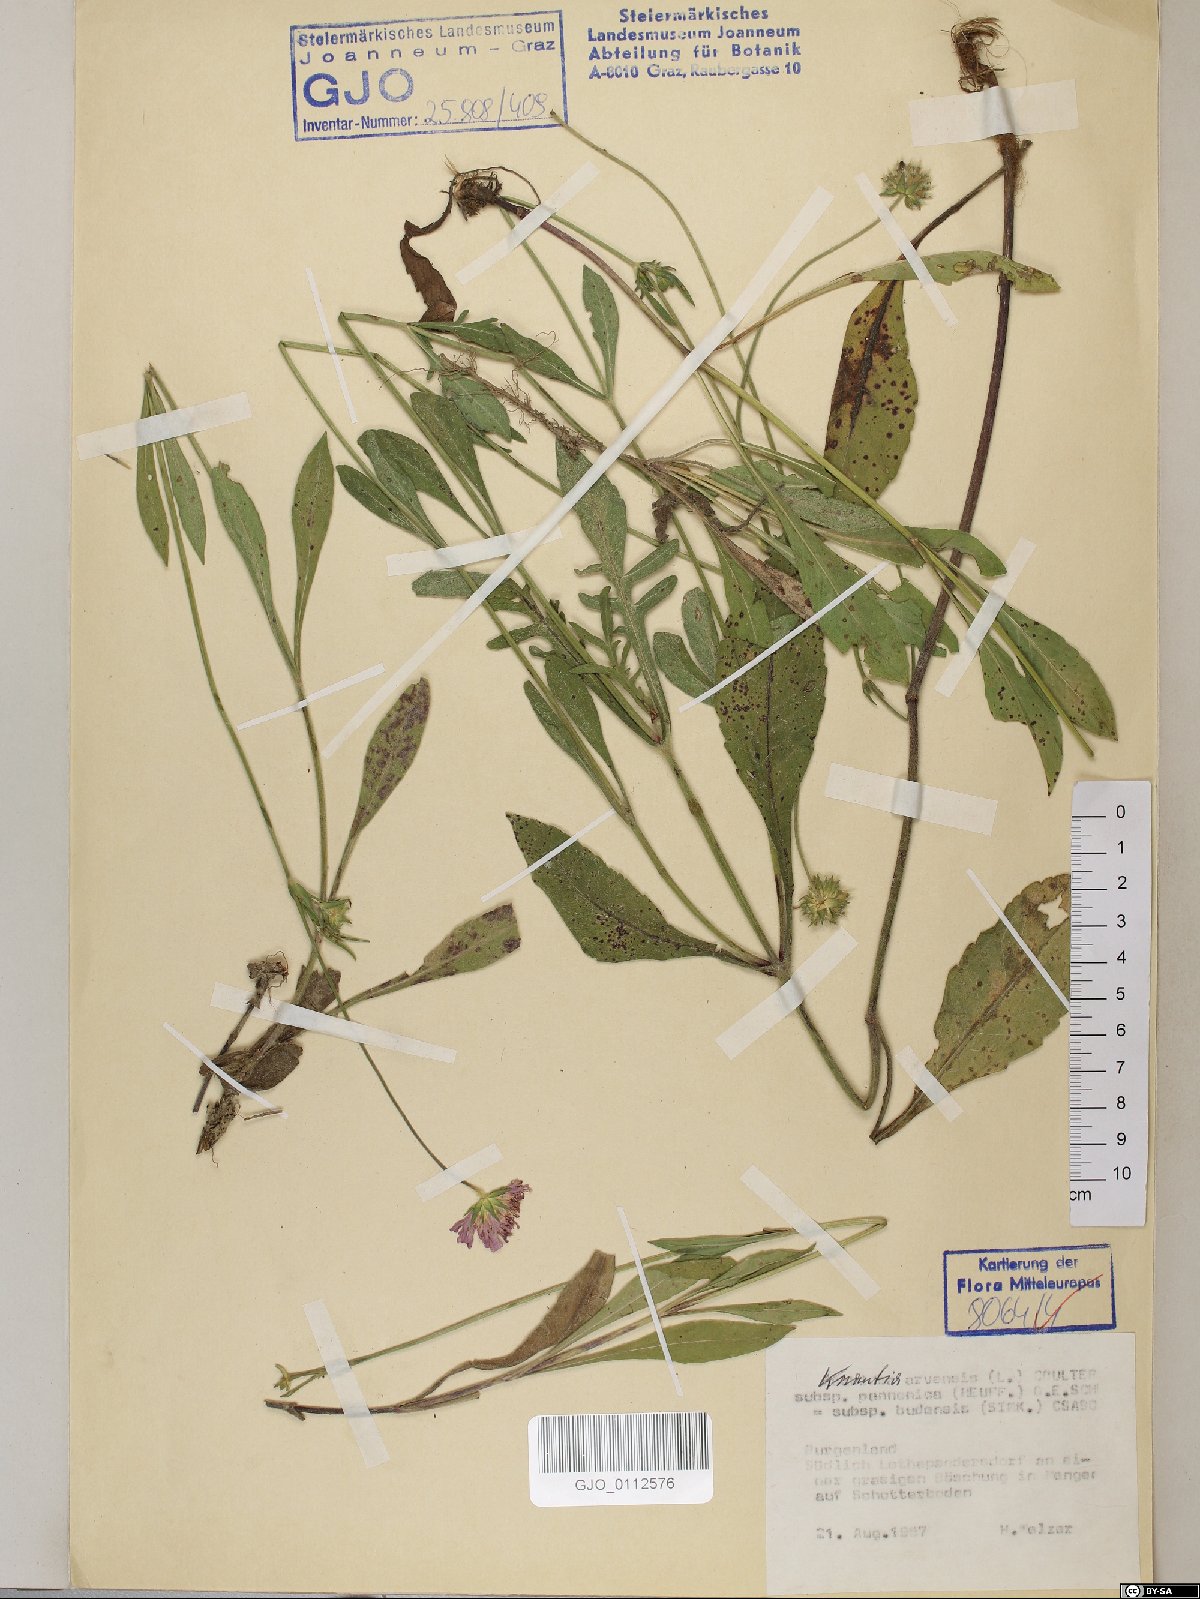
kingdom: Plantae
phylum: Tracheophyta
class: Magnoliopsida
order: Dipsacales
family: Caprifoliaceae
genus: Knautia
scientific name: Knautia arvensis
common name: Field scabiosa
